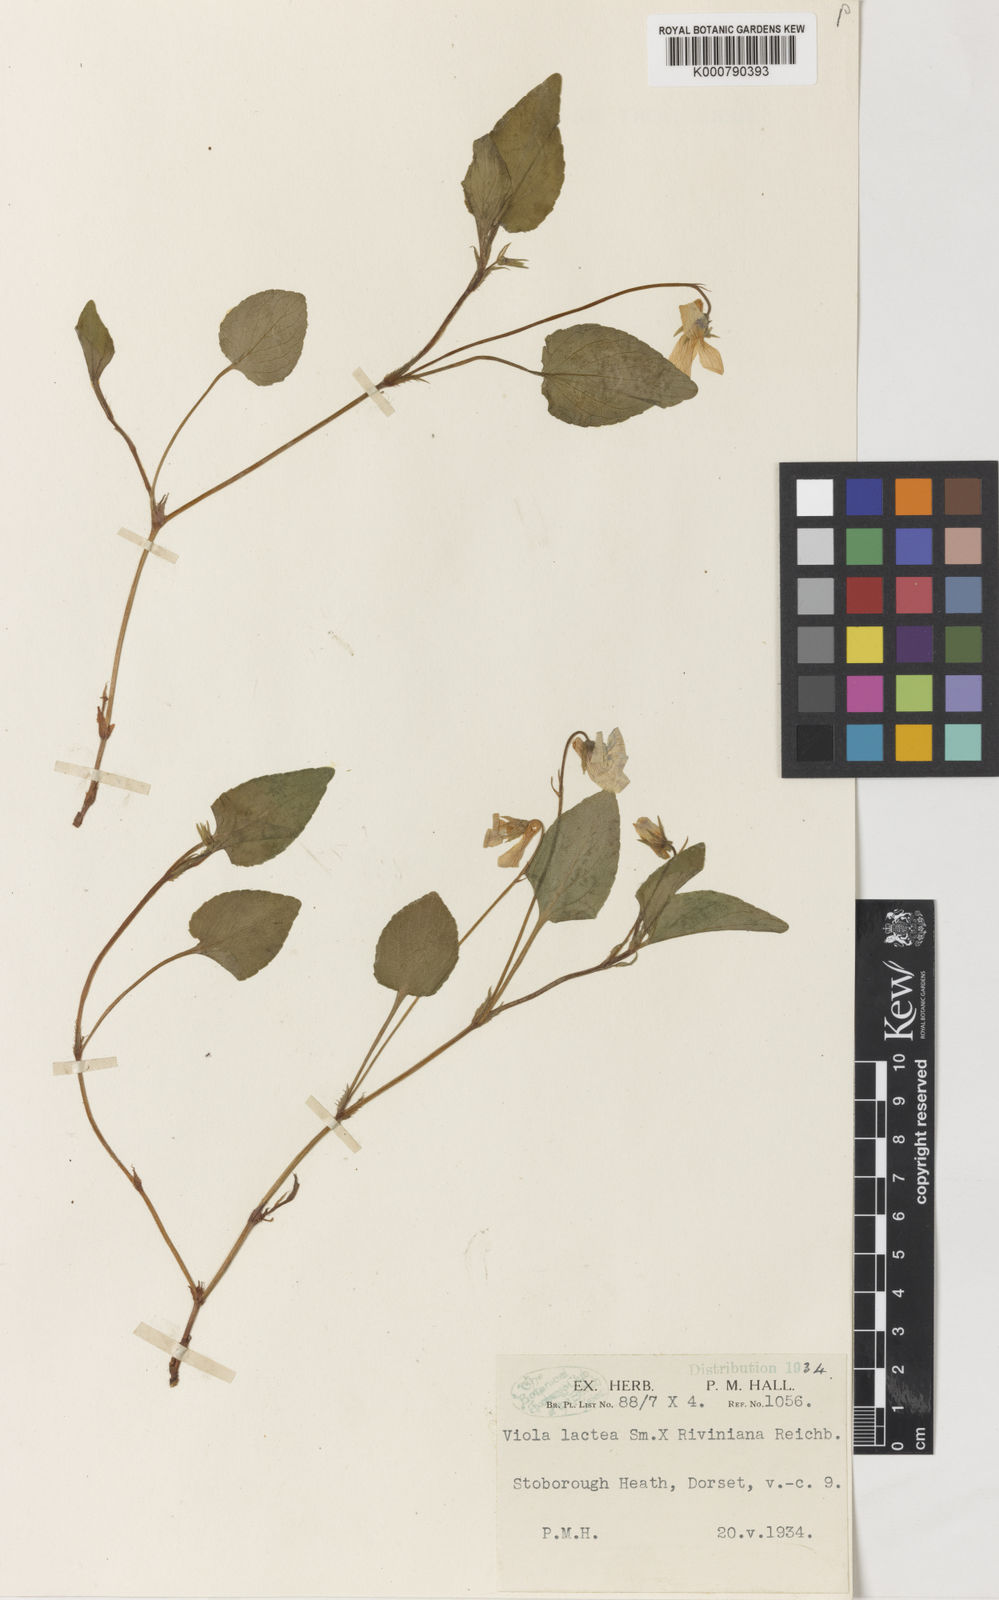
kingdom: Plantae
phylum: Tracheophyta
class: Magnoliopsida
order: Malpighiales
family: Violaceae
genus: Viola
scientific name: Viola lactea
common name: Pale dog-violet
